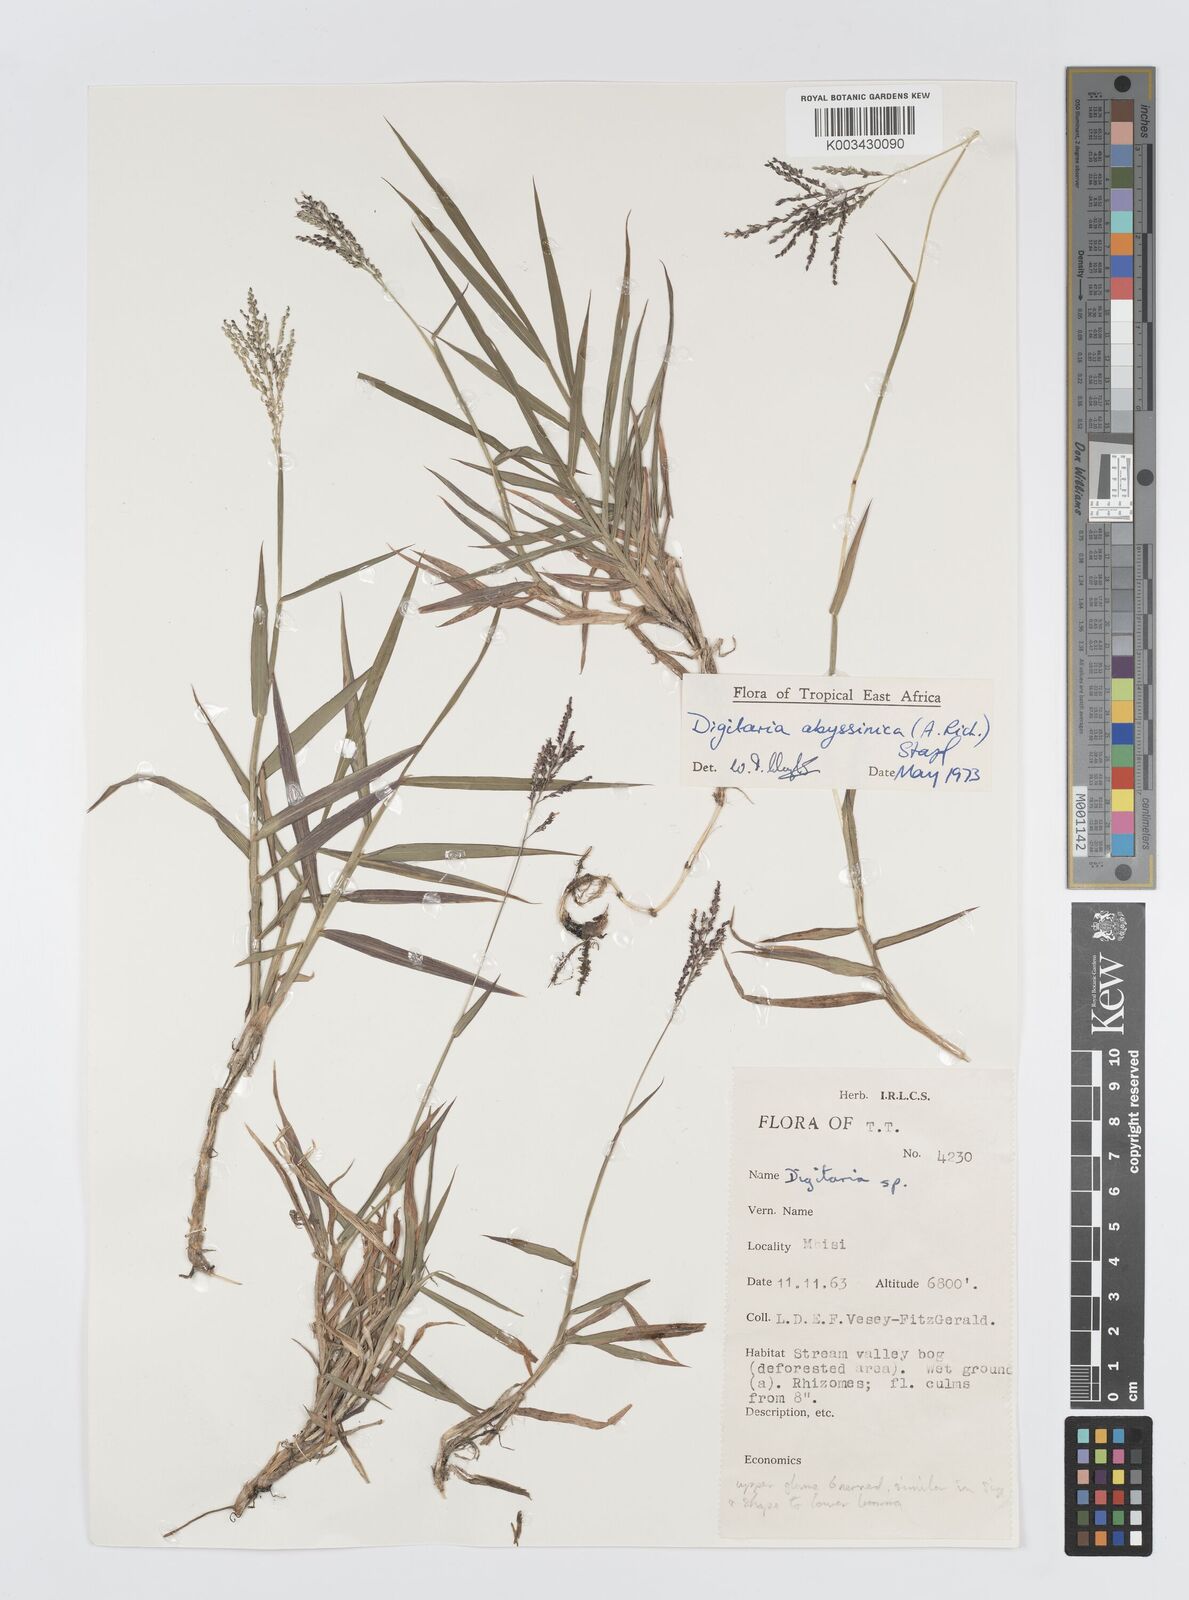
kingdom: Plantae
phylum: Tracheophyta
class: Liliopsida
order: Poales
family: Poaceae
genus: Digitaria
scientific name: Digitaria abyssinica
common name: African couchgrass
